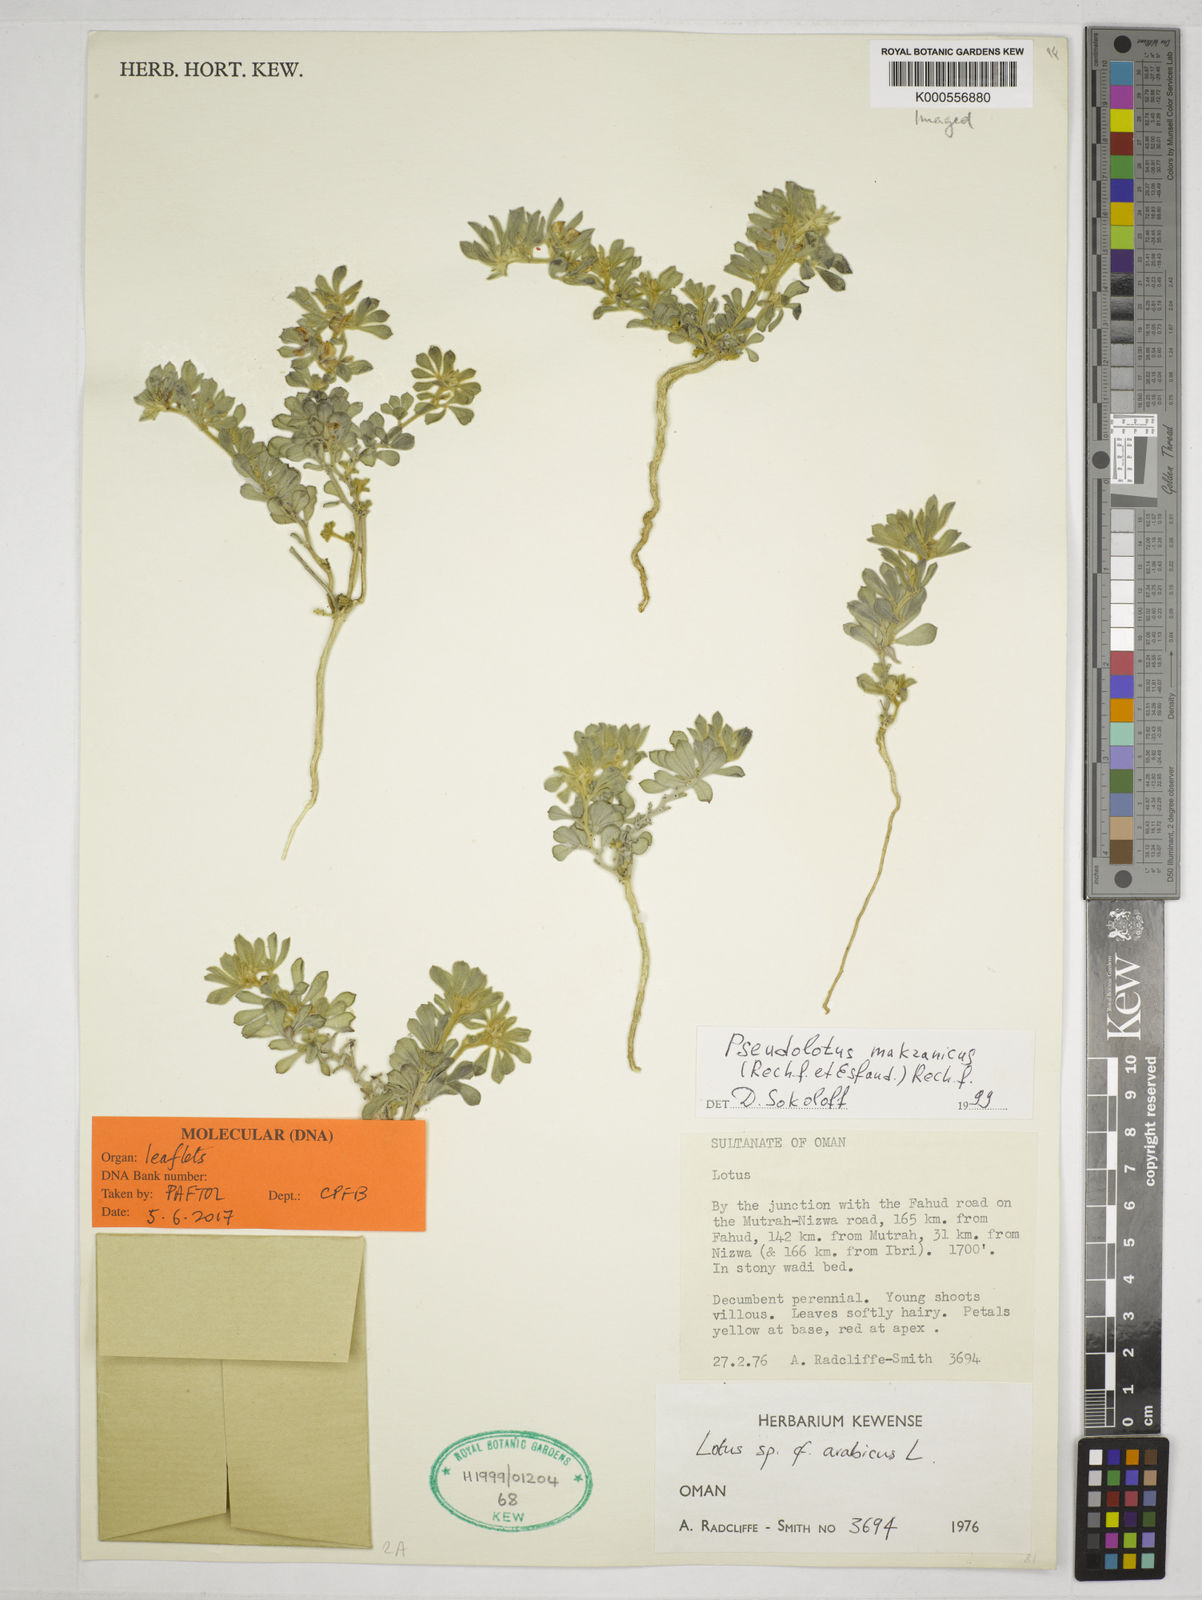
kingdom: Plantae
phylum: Tracheophyta
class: Magnoliopsida
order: Fabales
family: Fabaceae
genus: Pseudolotus
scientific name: Pseudolotus villosus
